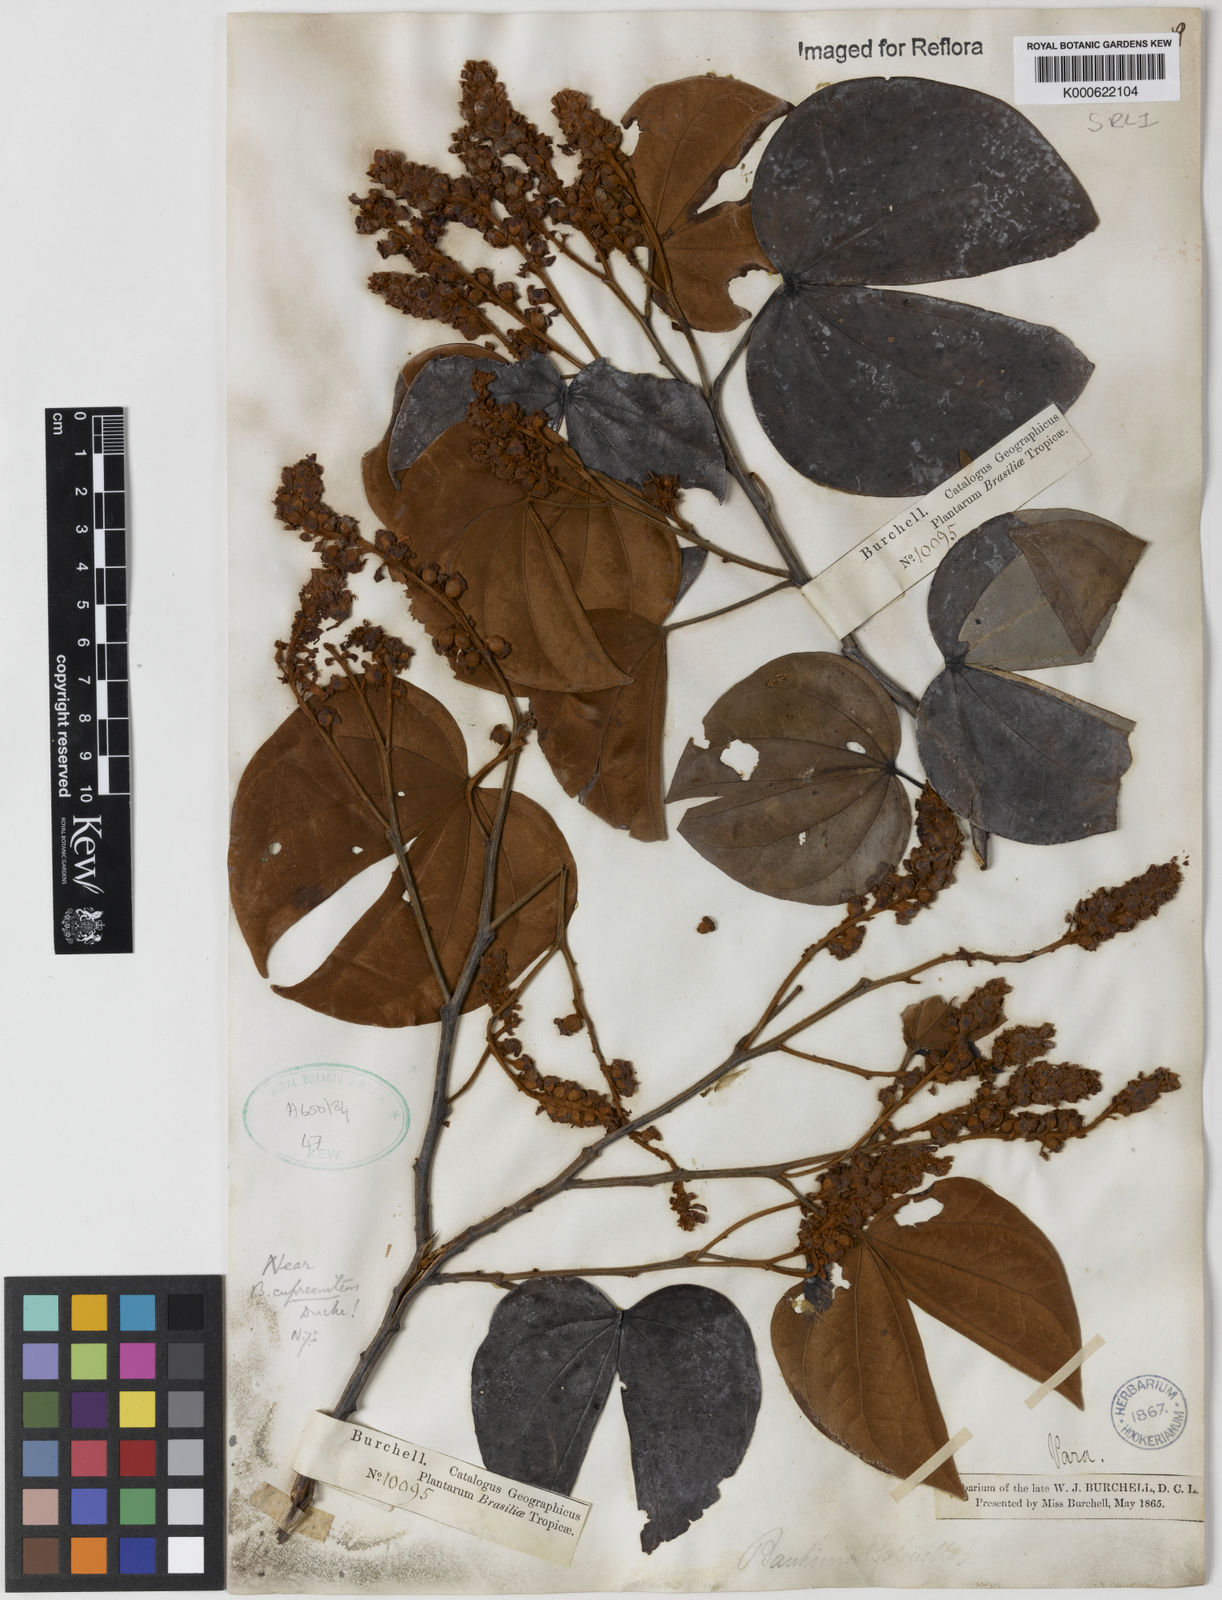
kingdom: Plantae
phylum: Tracheophyta
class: Magnoliopsida
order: Fabales
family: Fabaceae
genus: Schnella
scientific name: Schnella cupreonitens
